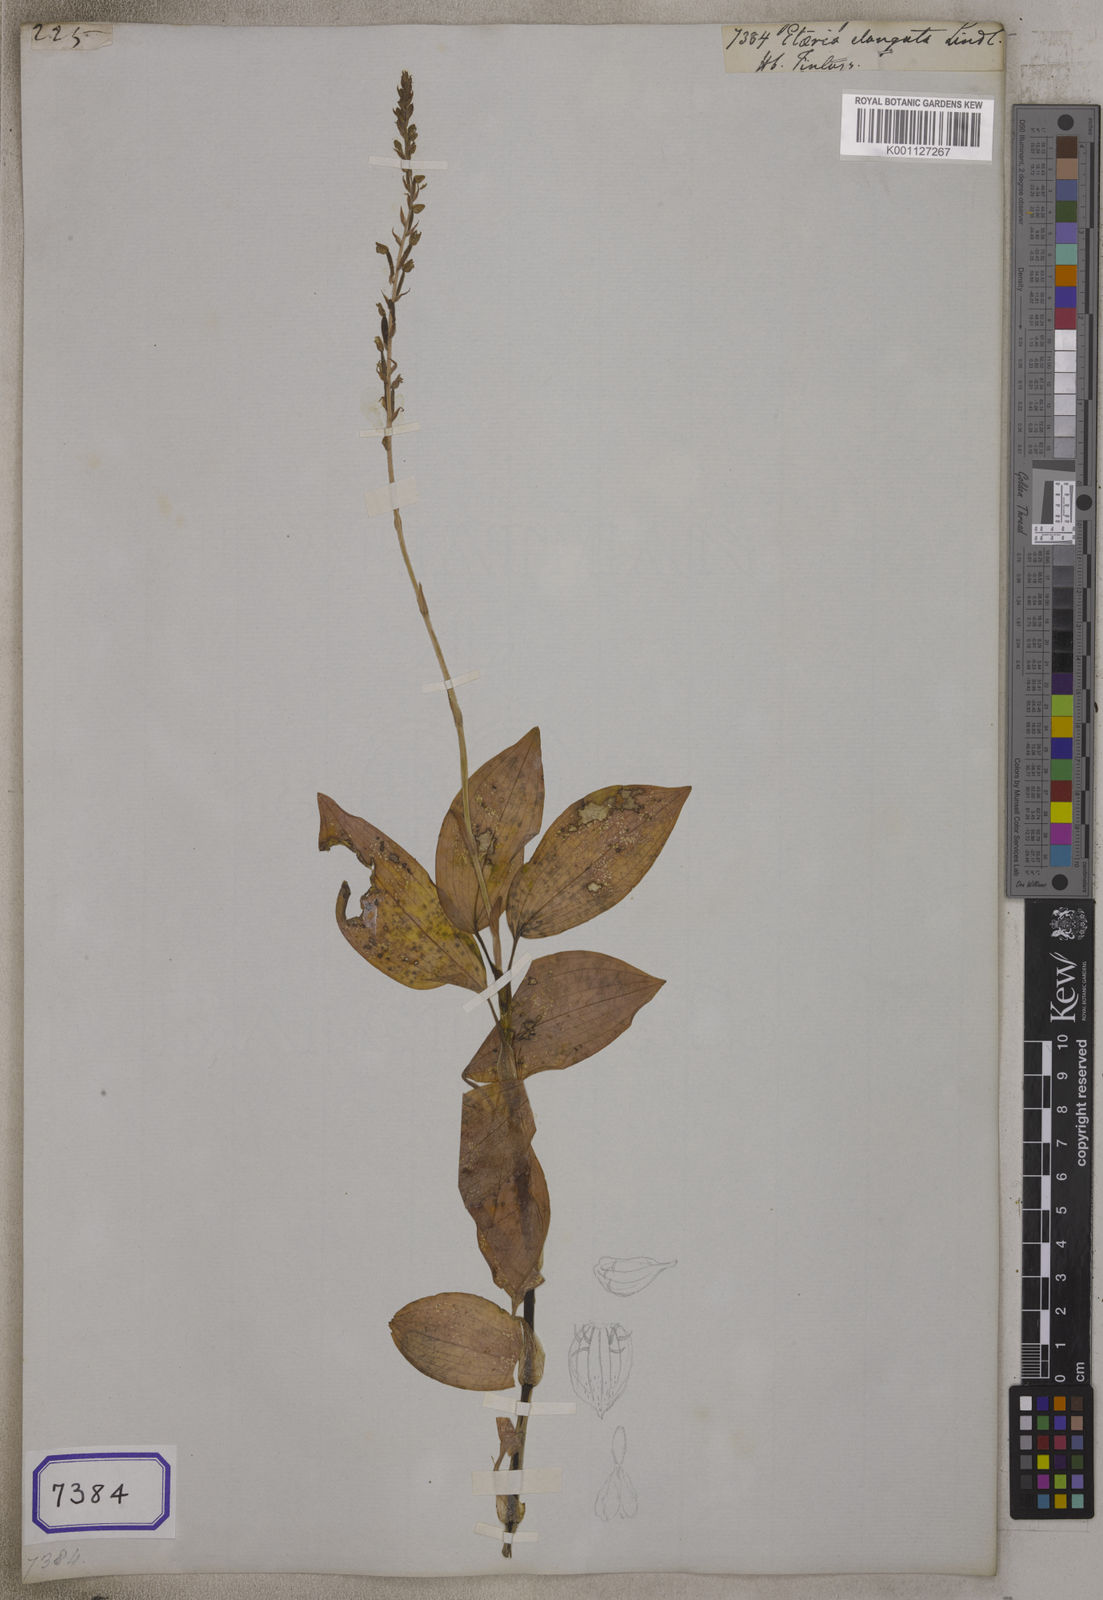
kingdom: Plantae
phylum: Tracheophyta
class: Liliopsida
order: Asparagales
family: Orchidaceae
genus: Hetaeria
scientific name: Hetaeria
